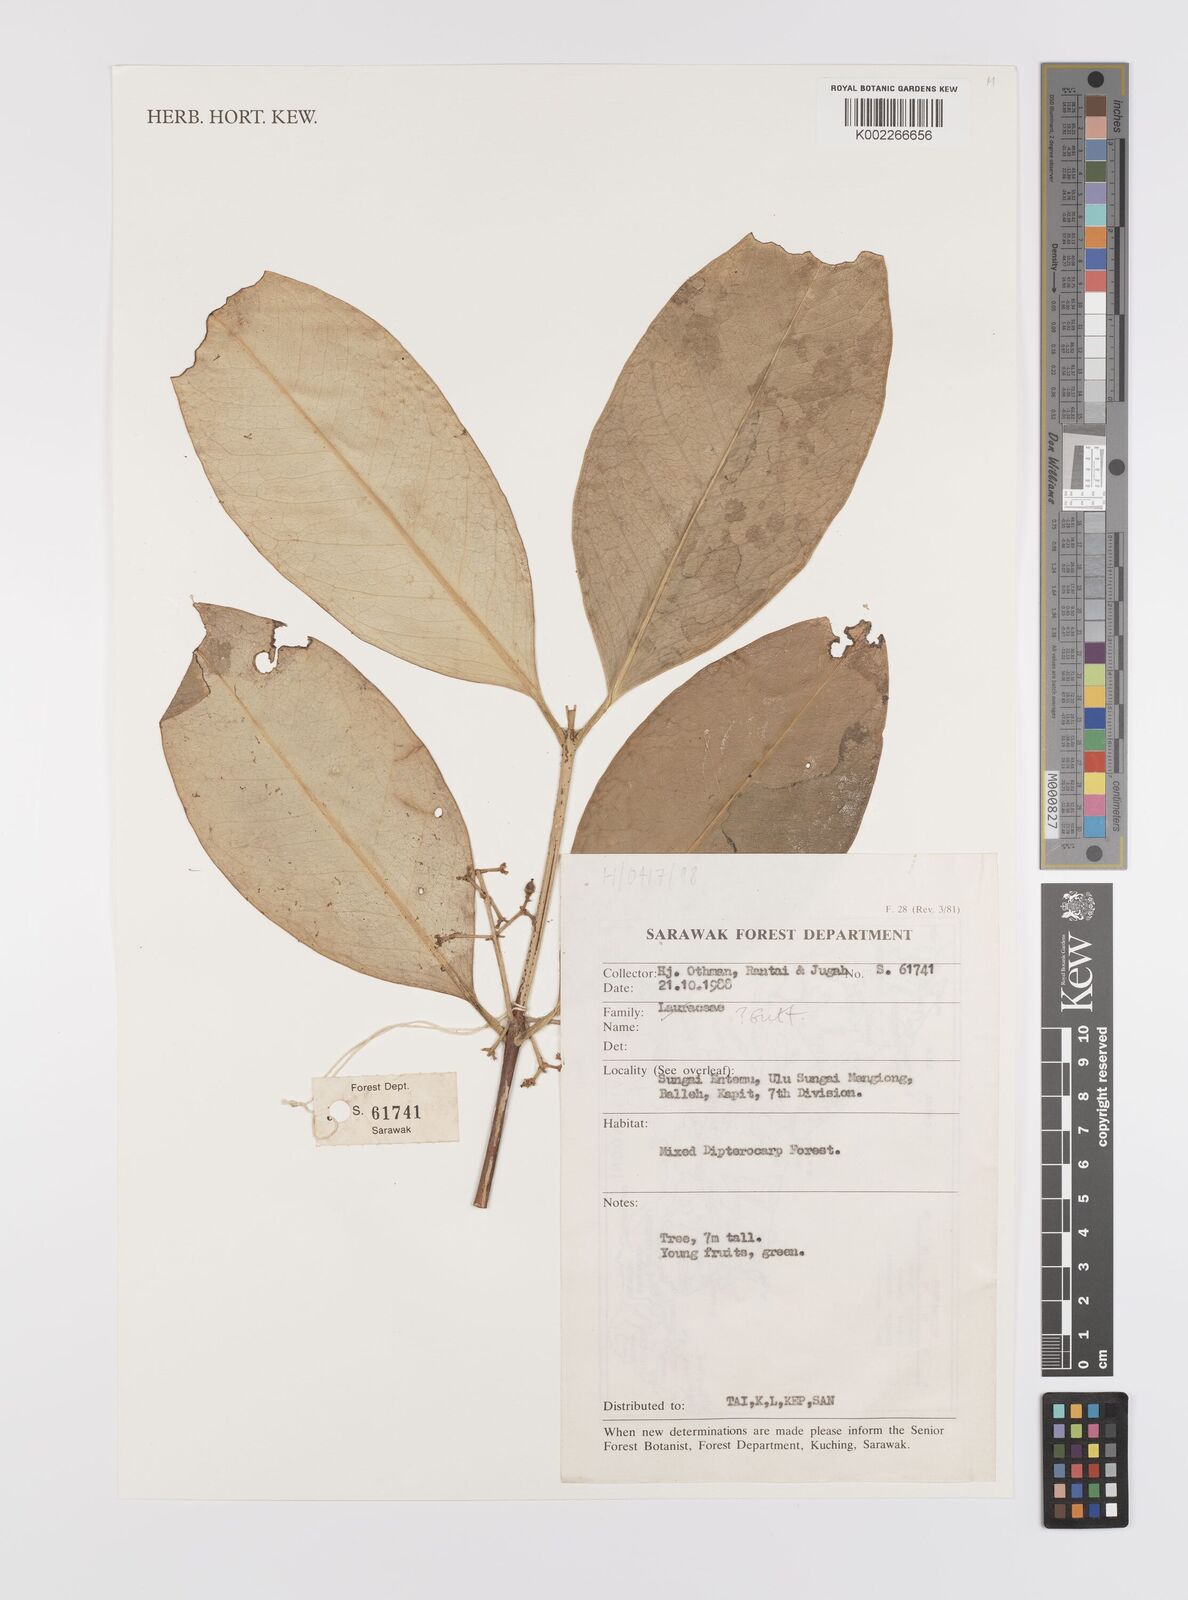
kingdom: Plantae
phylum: Tracheophyta
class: Magnoliopsida
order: Celastrales
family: Celastraceae
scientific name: Celastraceae
